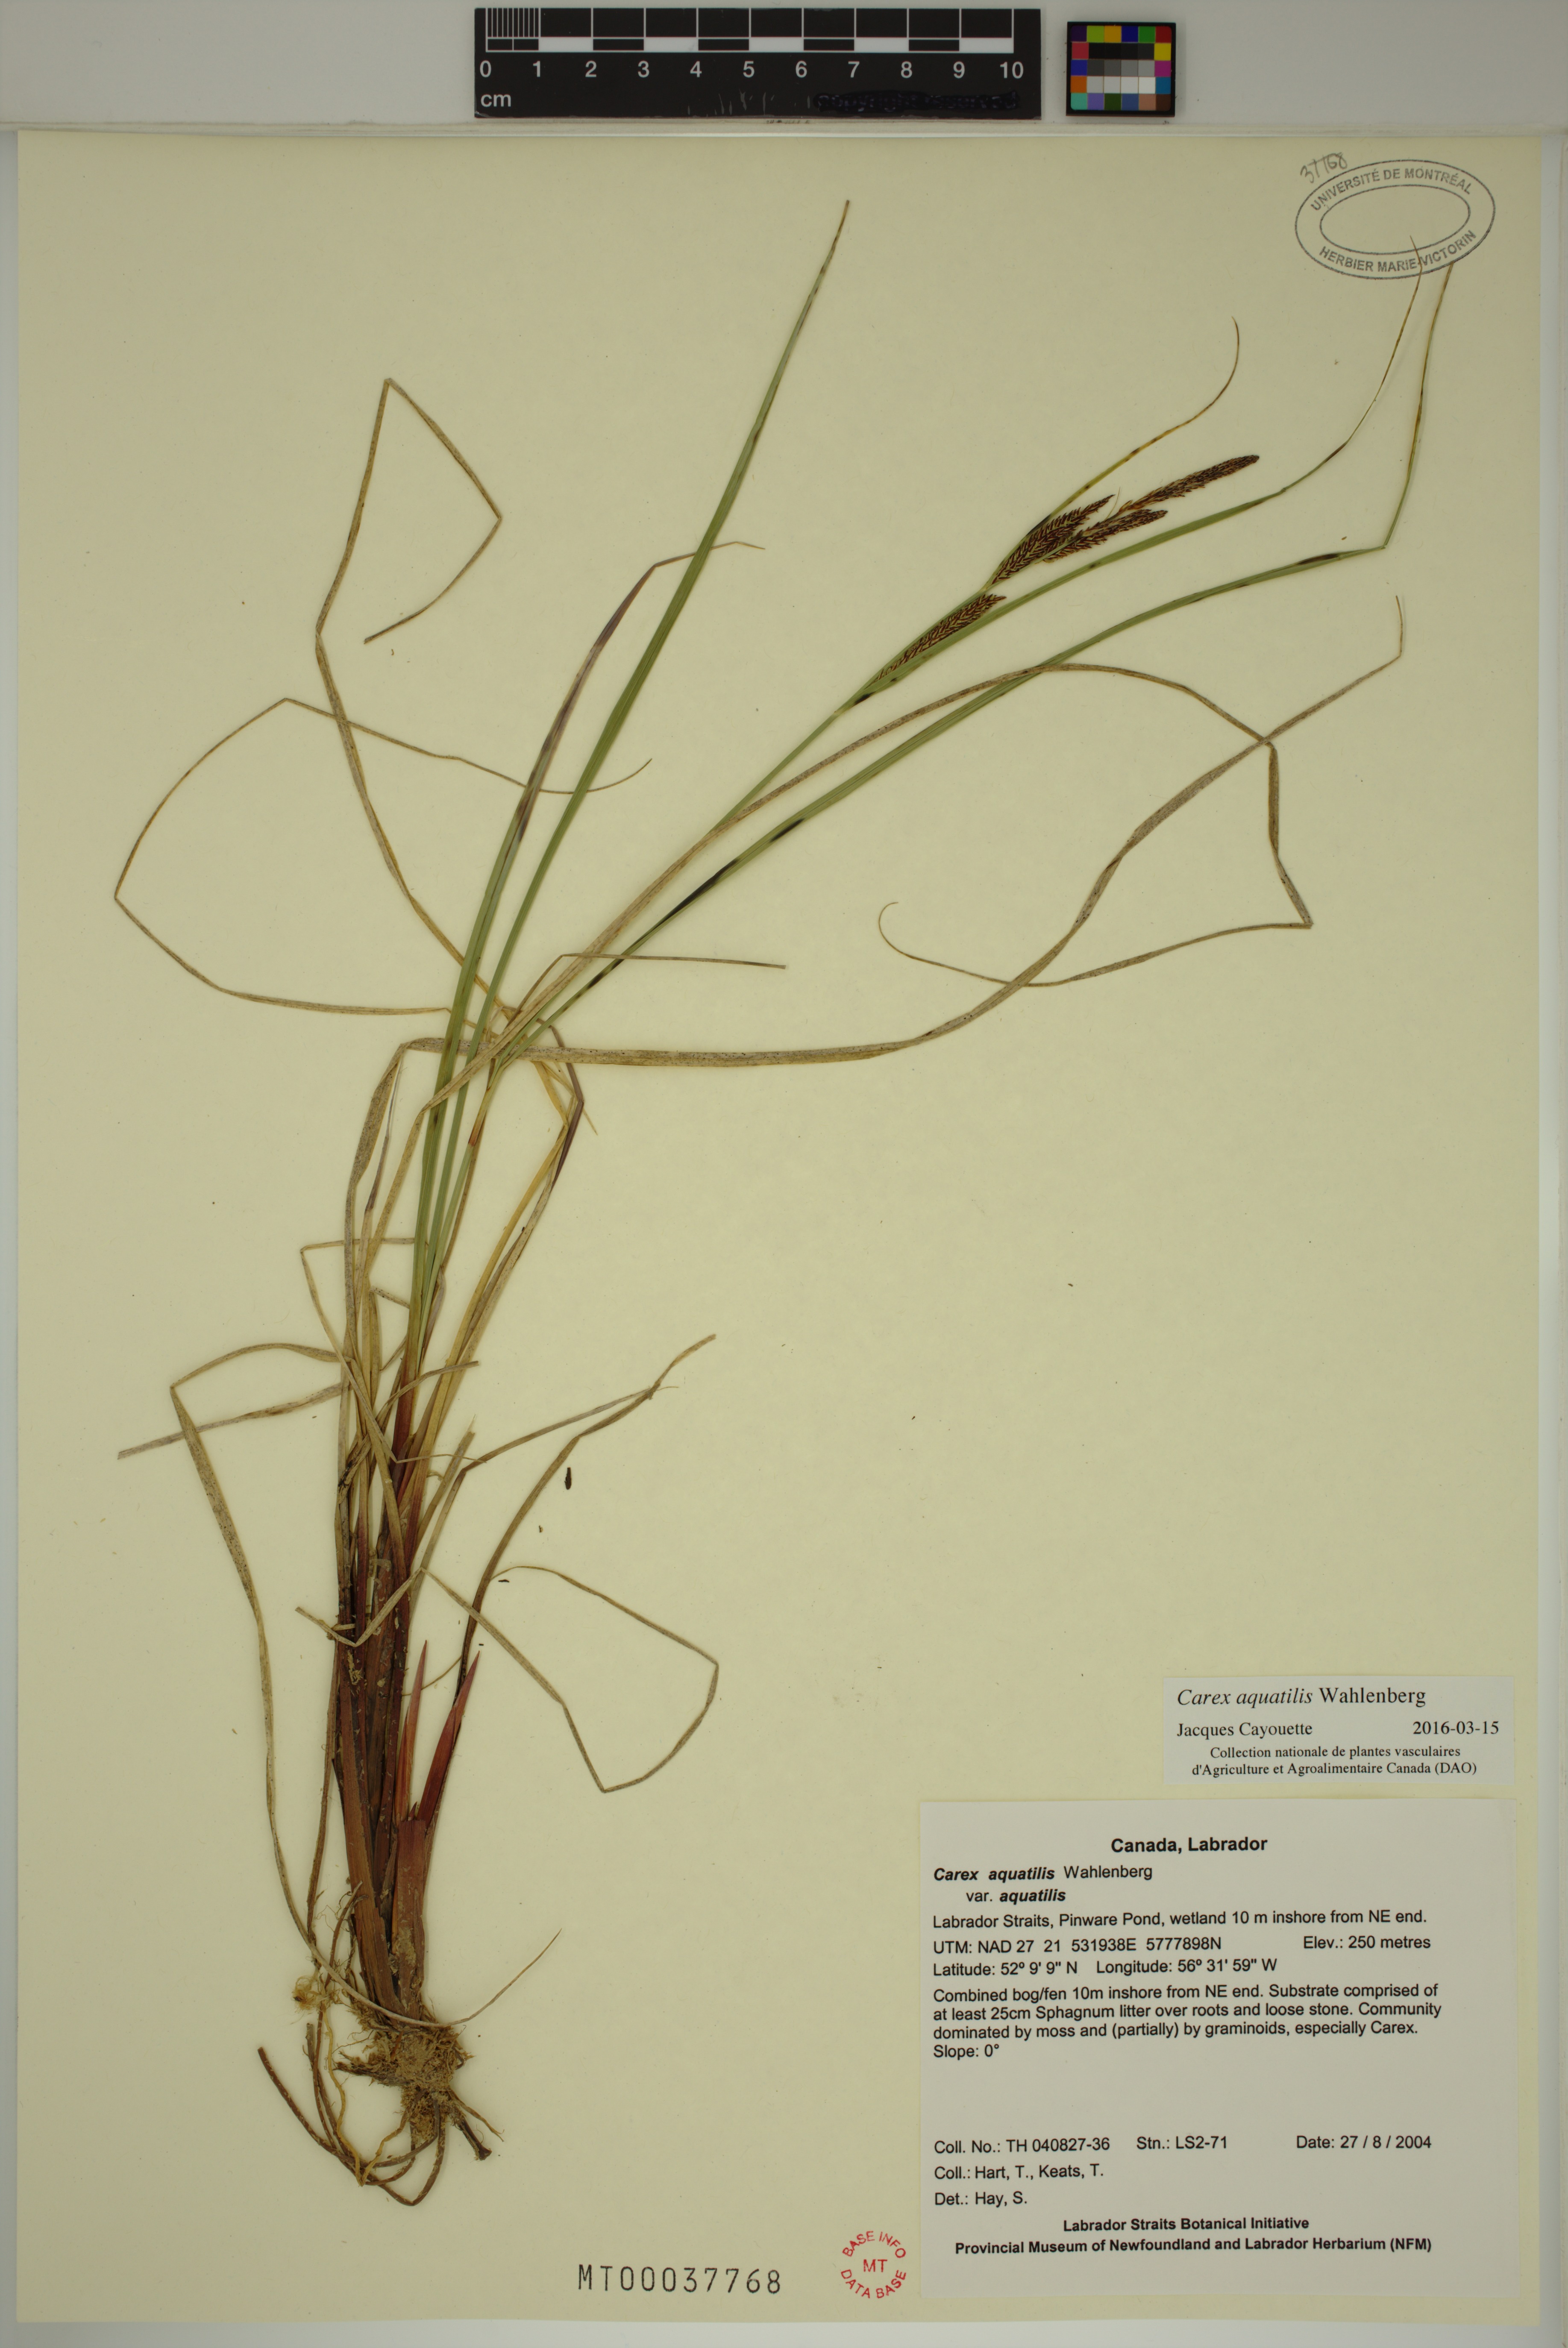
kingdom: Plantae
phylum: Tracheophyta
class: Liliopsida
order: Poales
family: Cyperaceae
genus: Carex
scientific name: Carex aquatilis
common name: Water sedge
